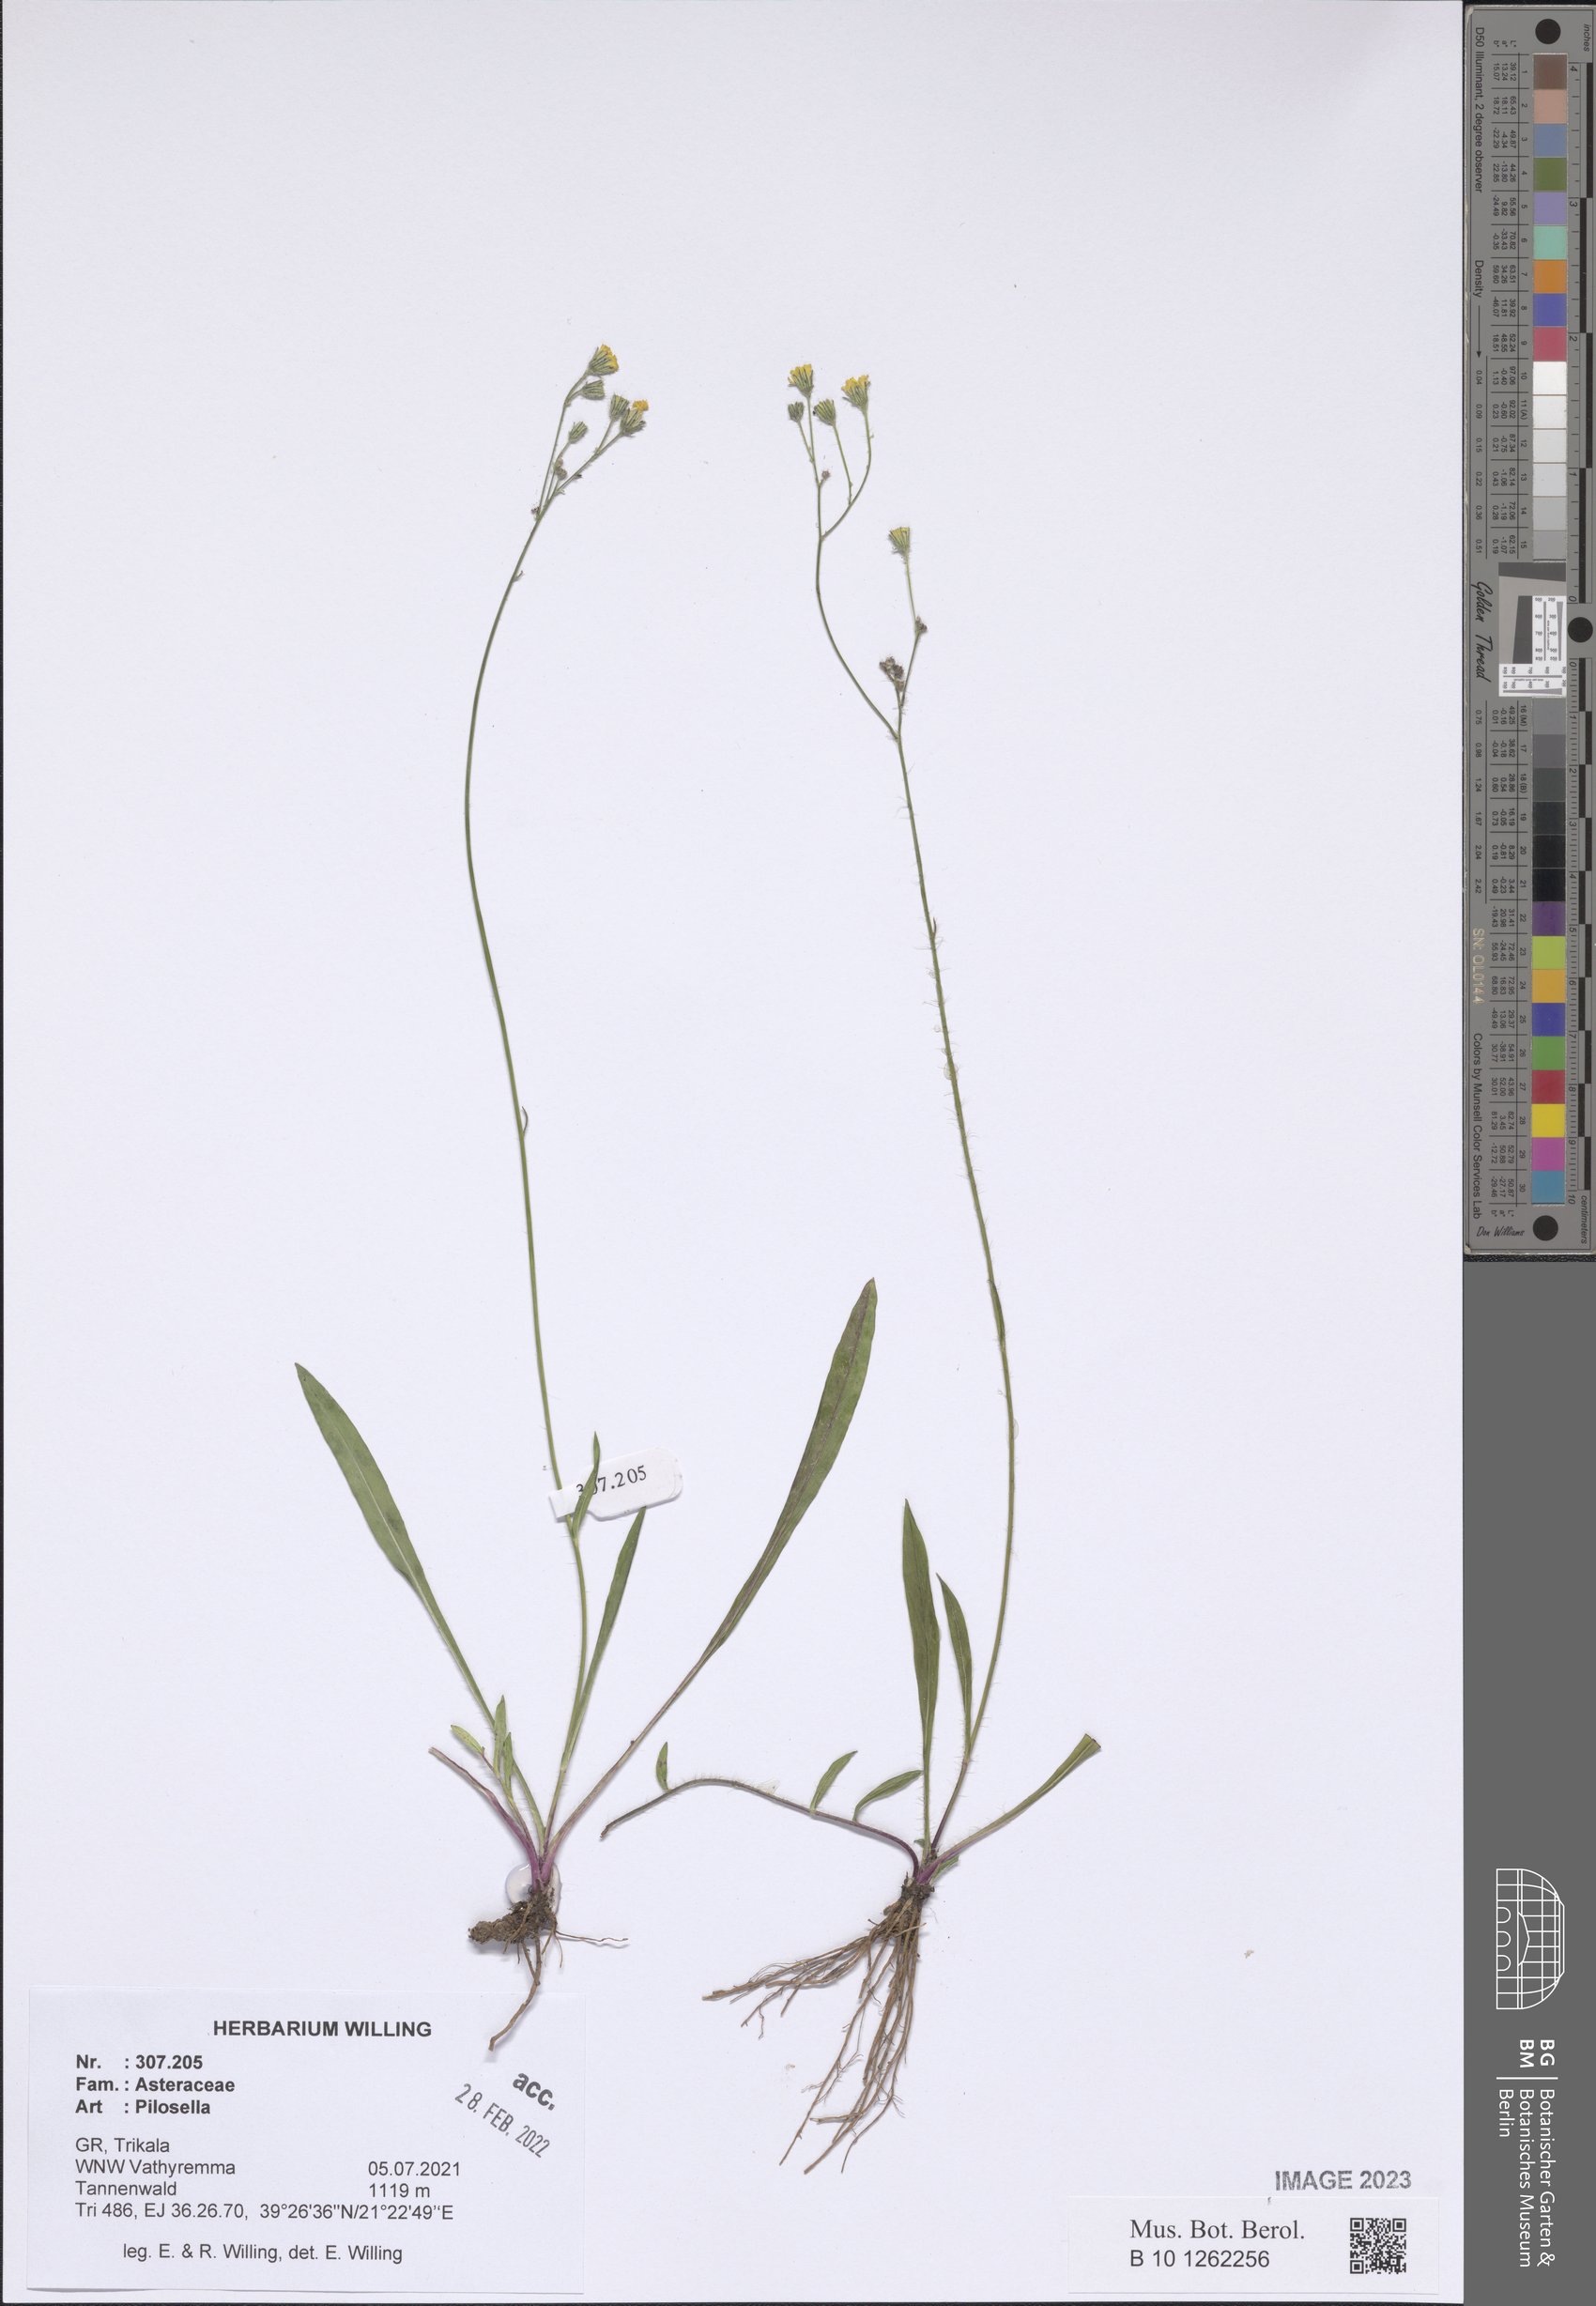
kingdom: Plantae
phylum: Tracheophyta
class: Magnoliopsida
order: Asterales
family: Asteraceae
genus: Pilosella
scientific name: Pilosella
